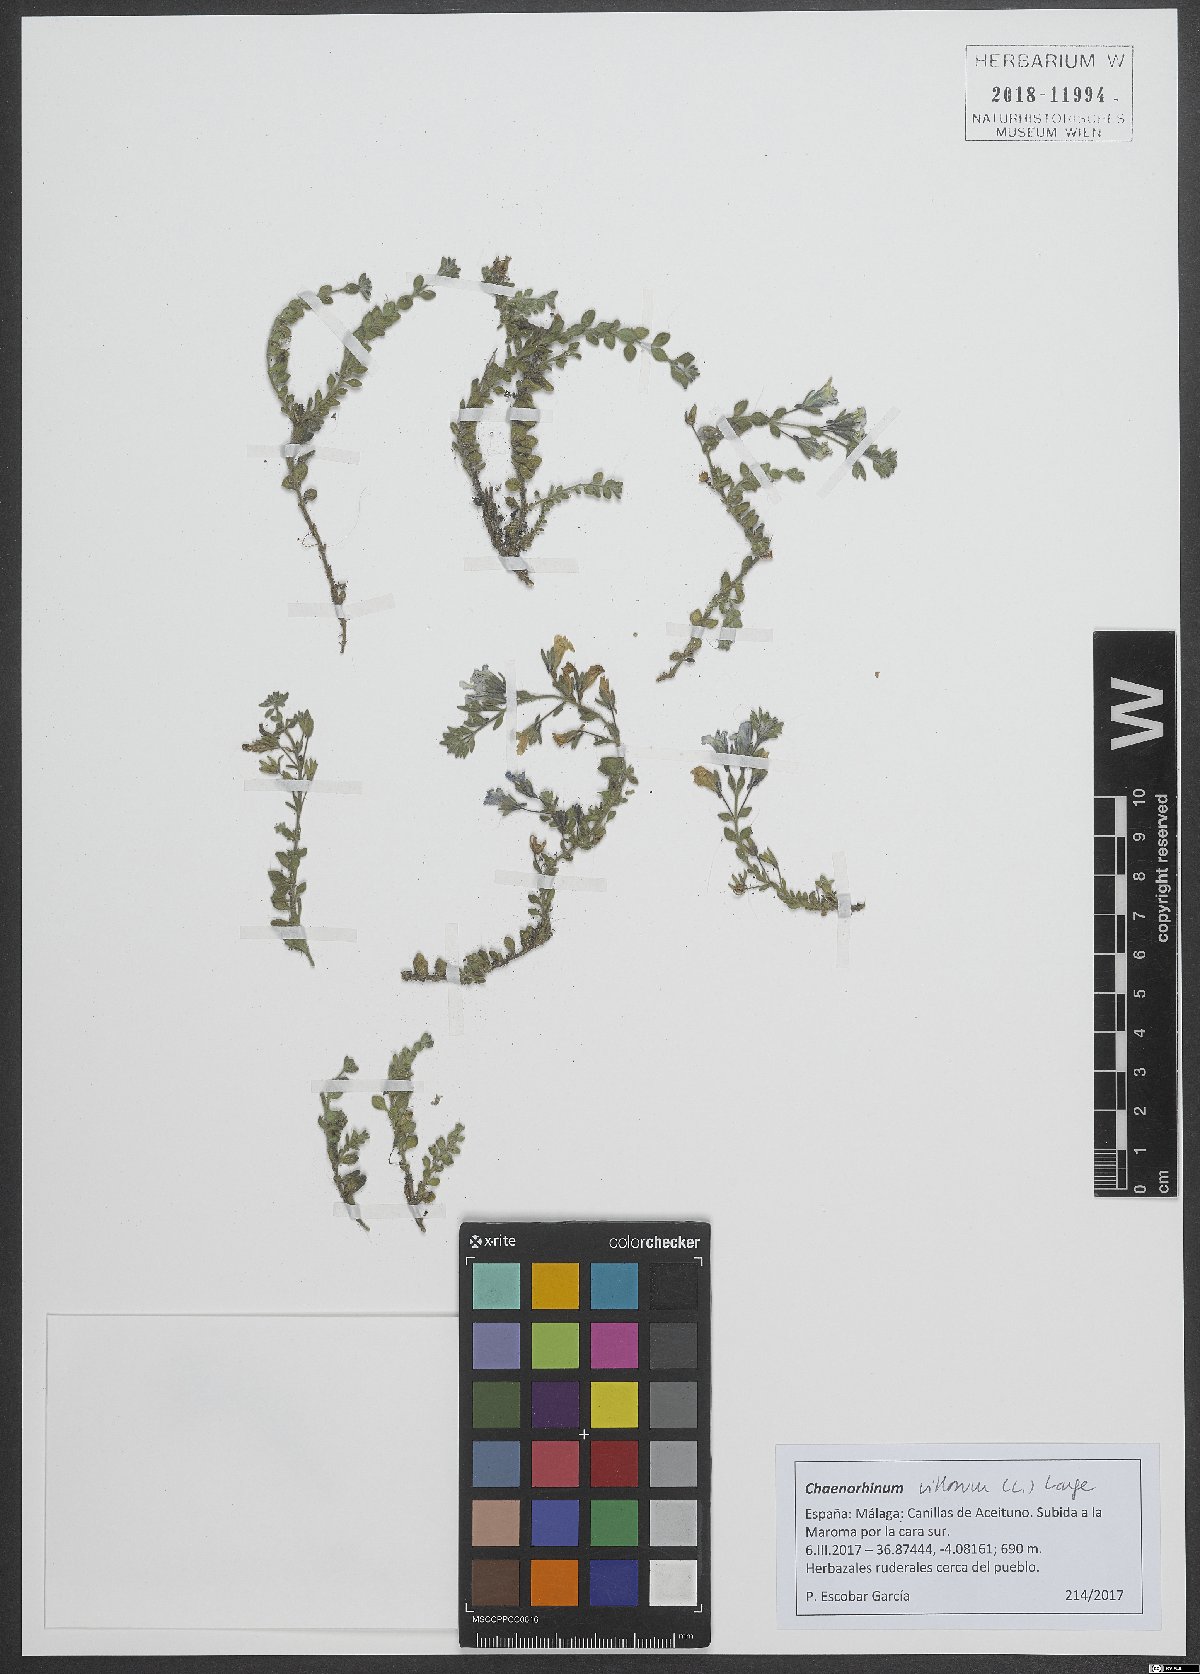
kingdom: Plantae
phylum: Tracheophyta
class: Magnoliopsida
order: Lamiales
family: Plantaginaceae
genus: Chaenorhinum
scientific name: Chaenorhinum villosum
